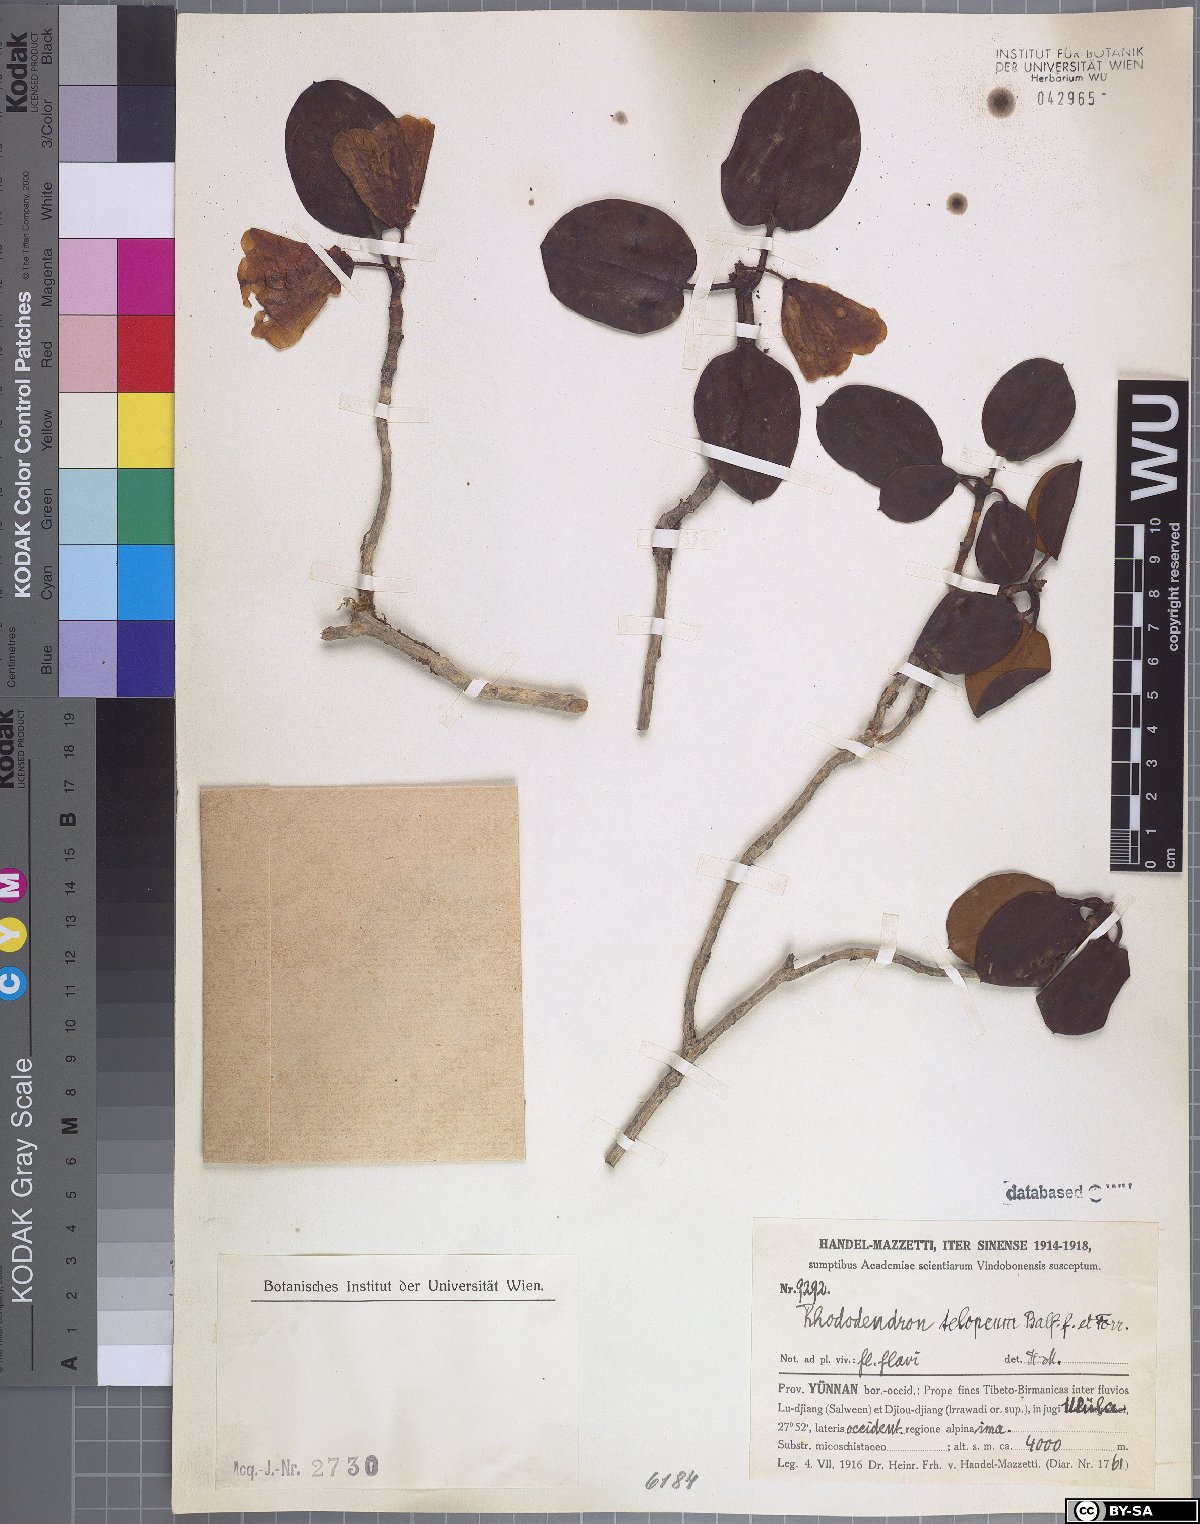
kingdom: Plantae
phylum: Tracheophyta
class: Magnoliopsida
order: Ericales
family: Ericaceae
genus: Rhododendron
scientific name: Rhododendron campylocarpum
